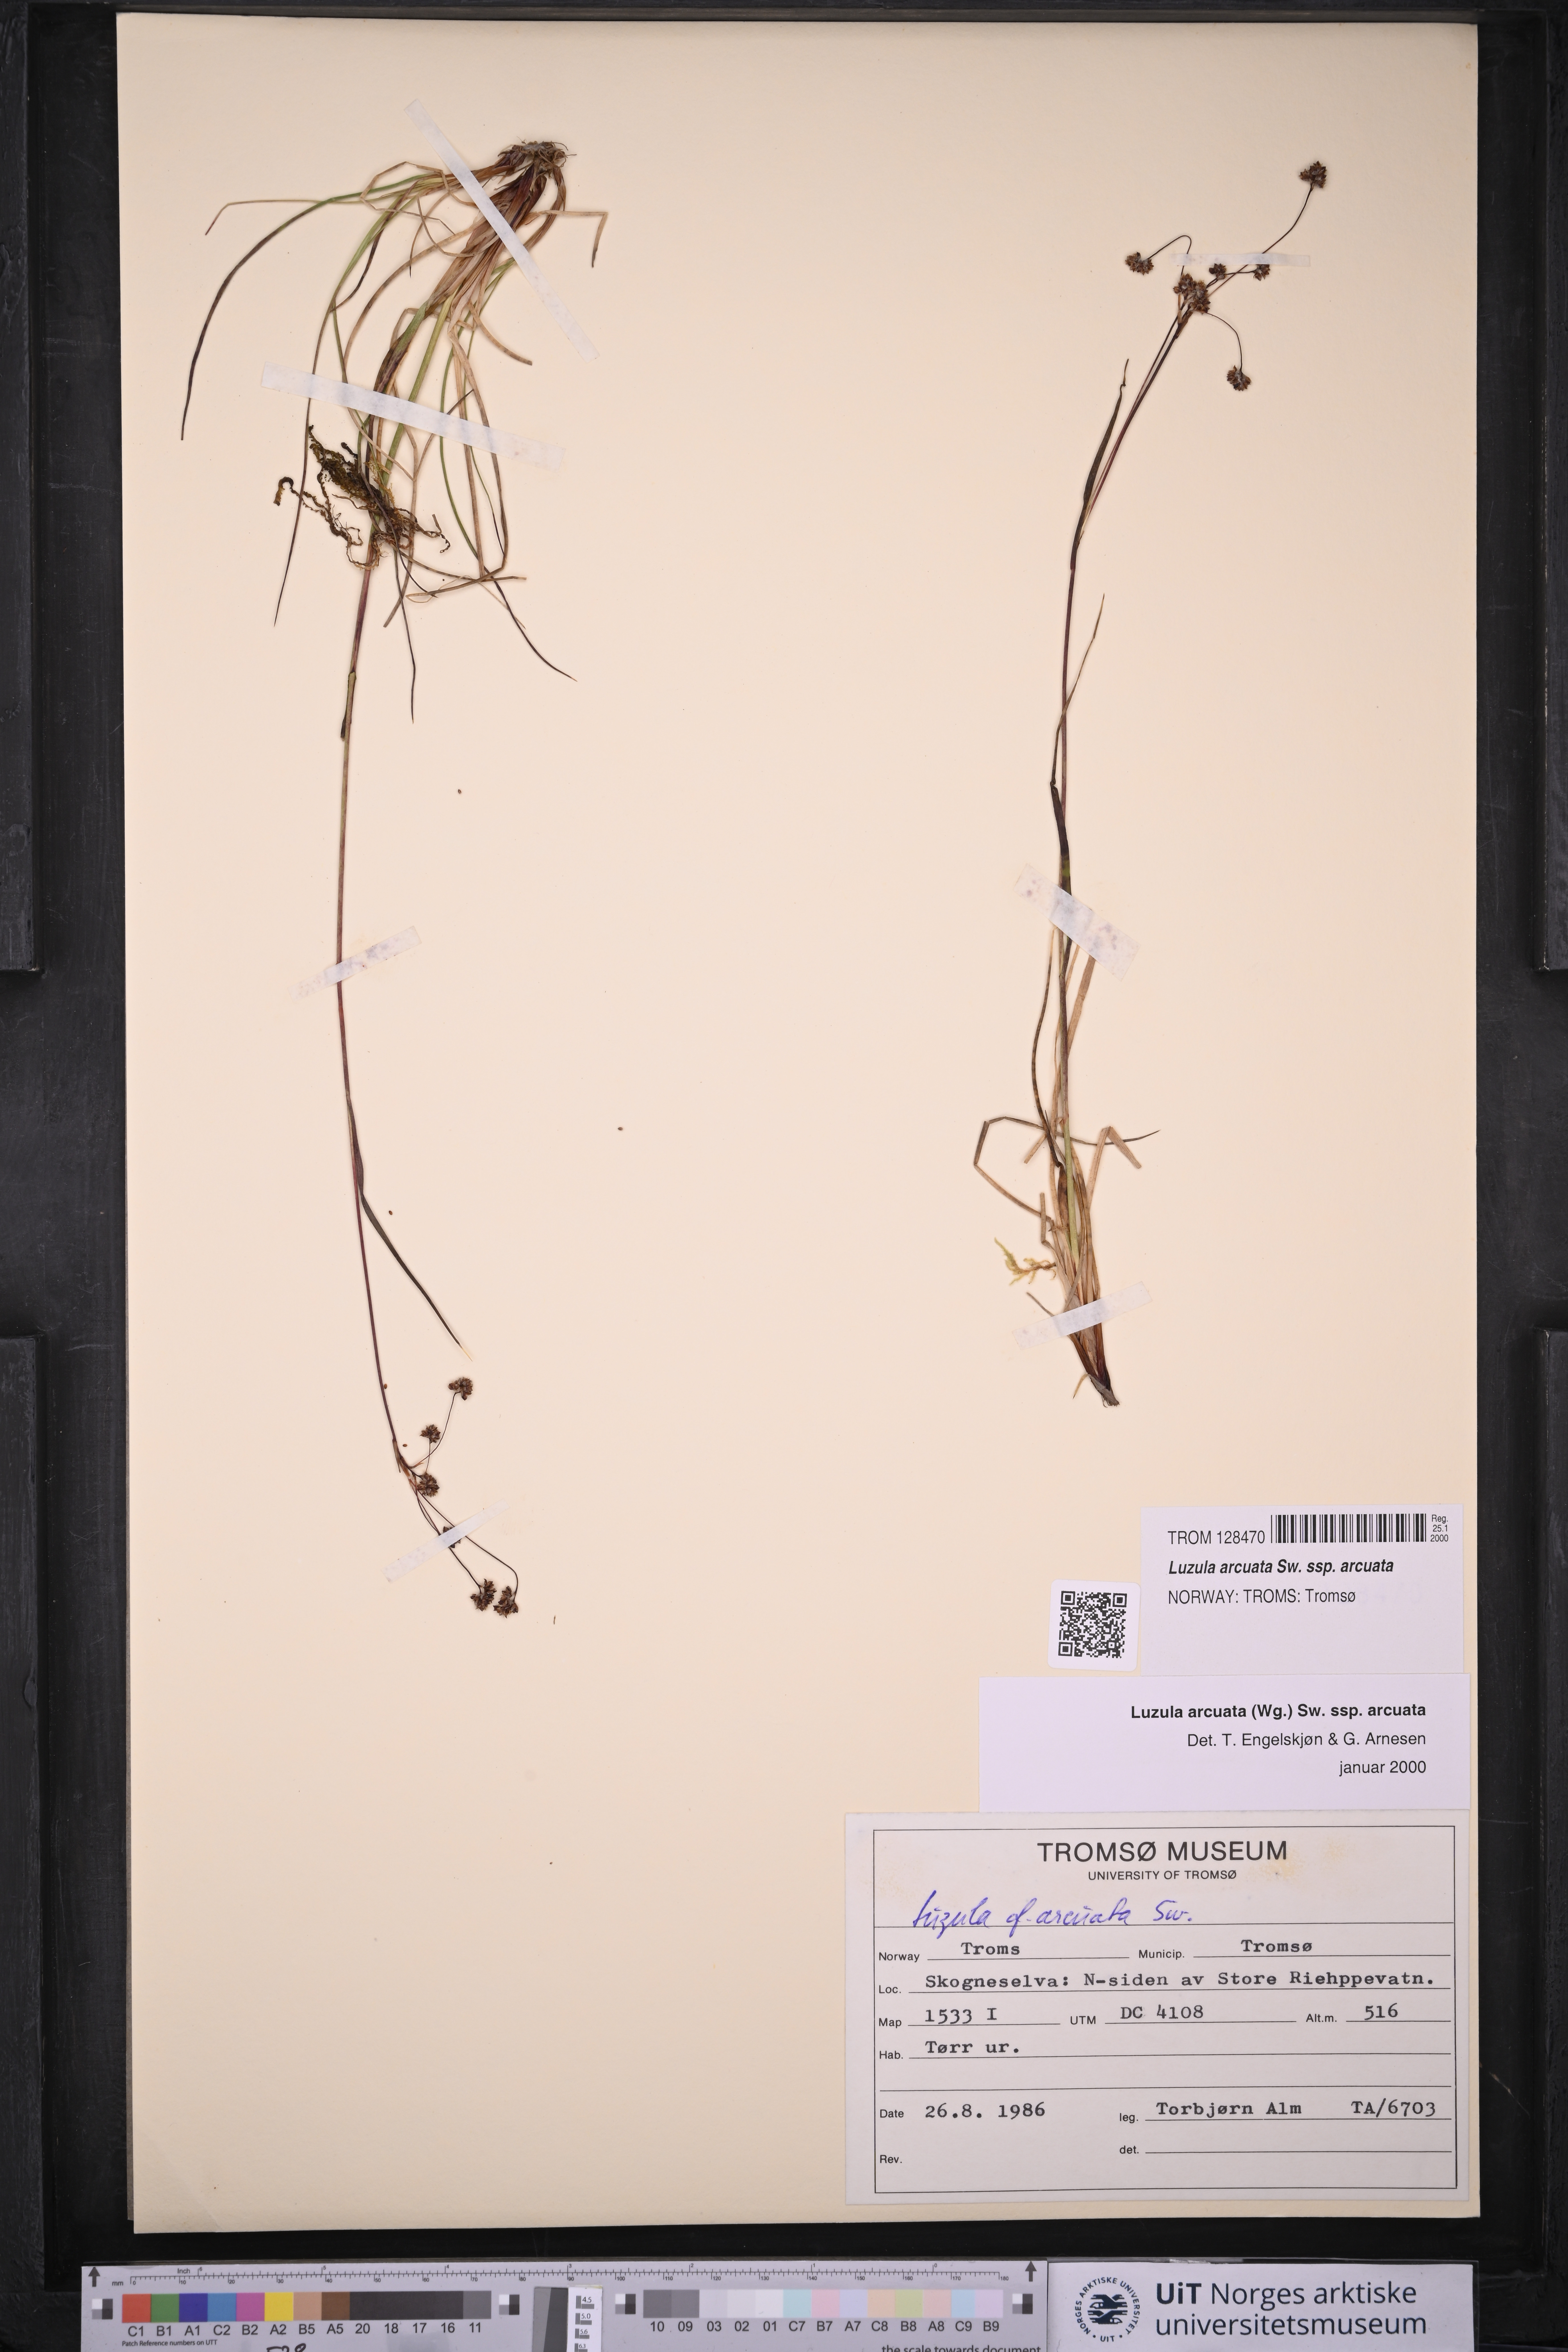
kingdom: Plantae
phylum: Tracheophyta
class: Liliopsida
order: Poales
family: Juncaceae
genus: Luzula
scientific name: Luzula arcuata
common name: Curved wood-rush
